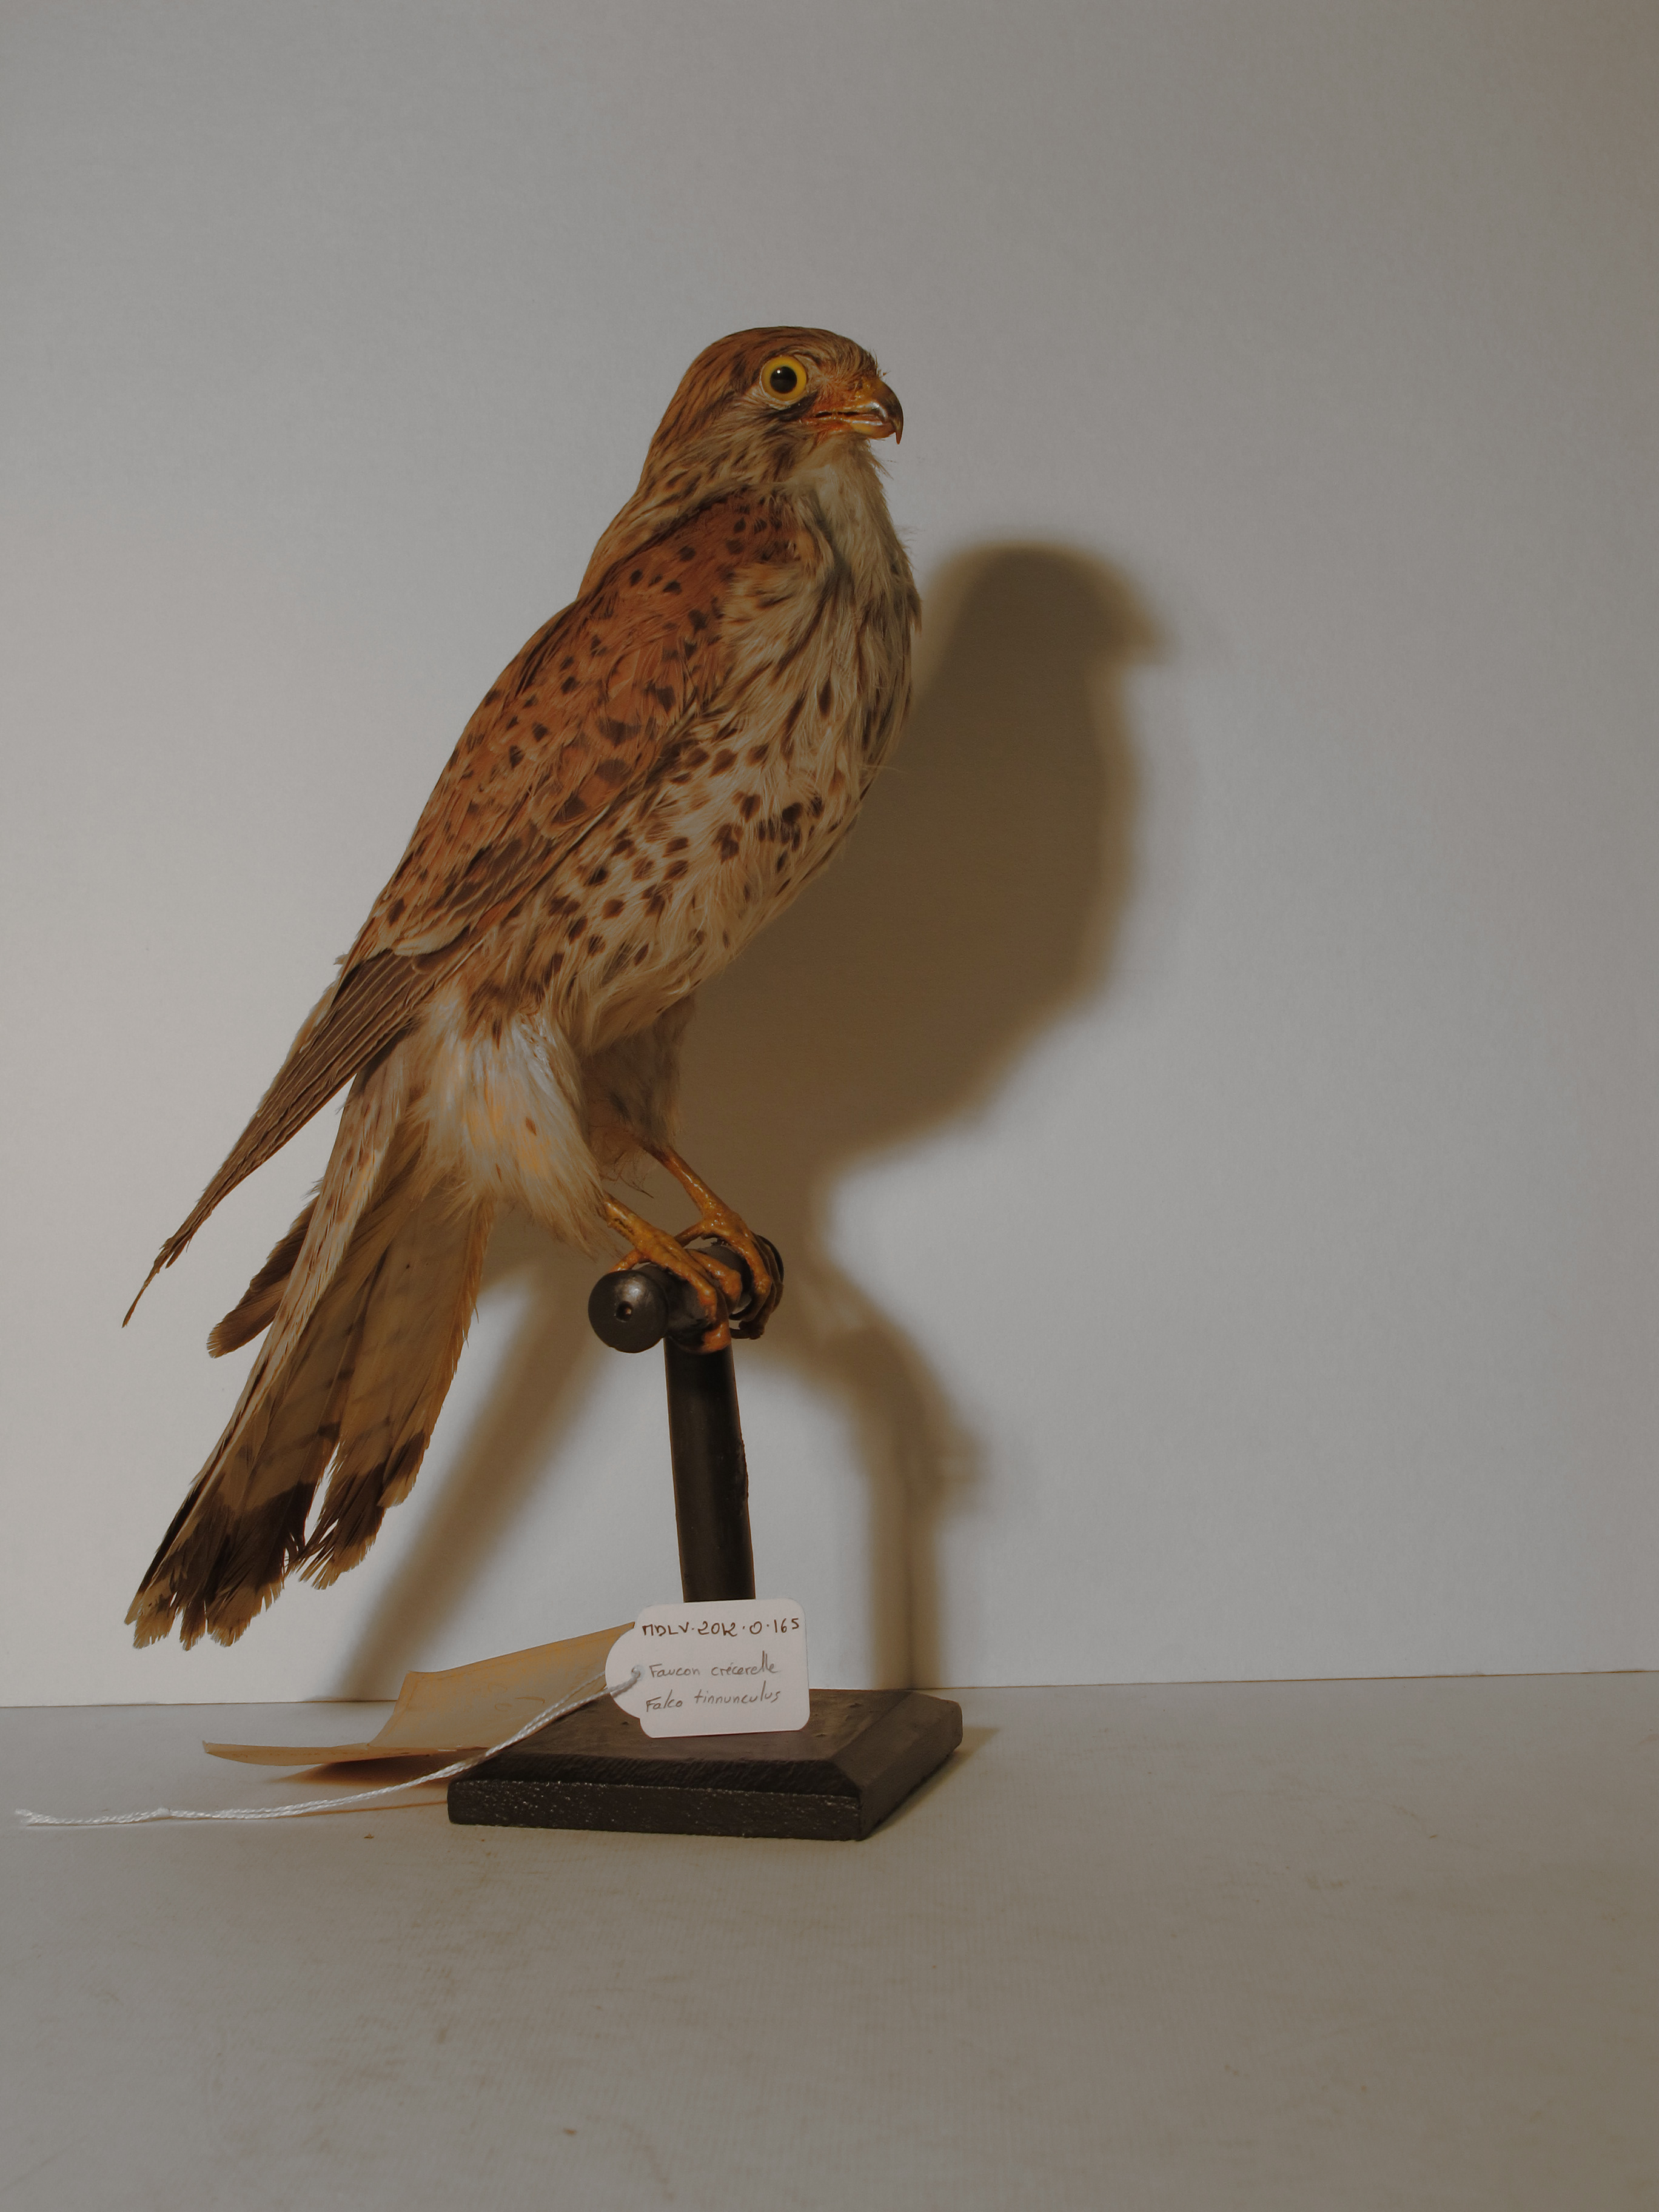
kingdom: Animalia
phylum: Chordata
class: Aves
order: Falconiformes
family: Falconidae
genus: Falco
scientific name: Falco tinnunculus
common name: Common Kestrel
